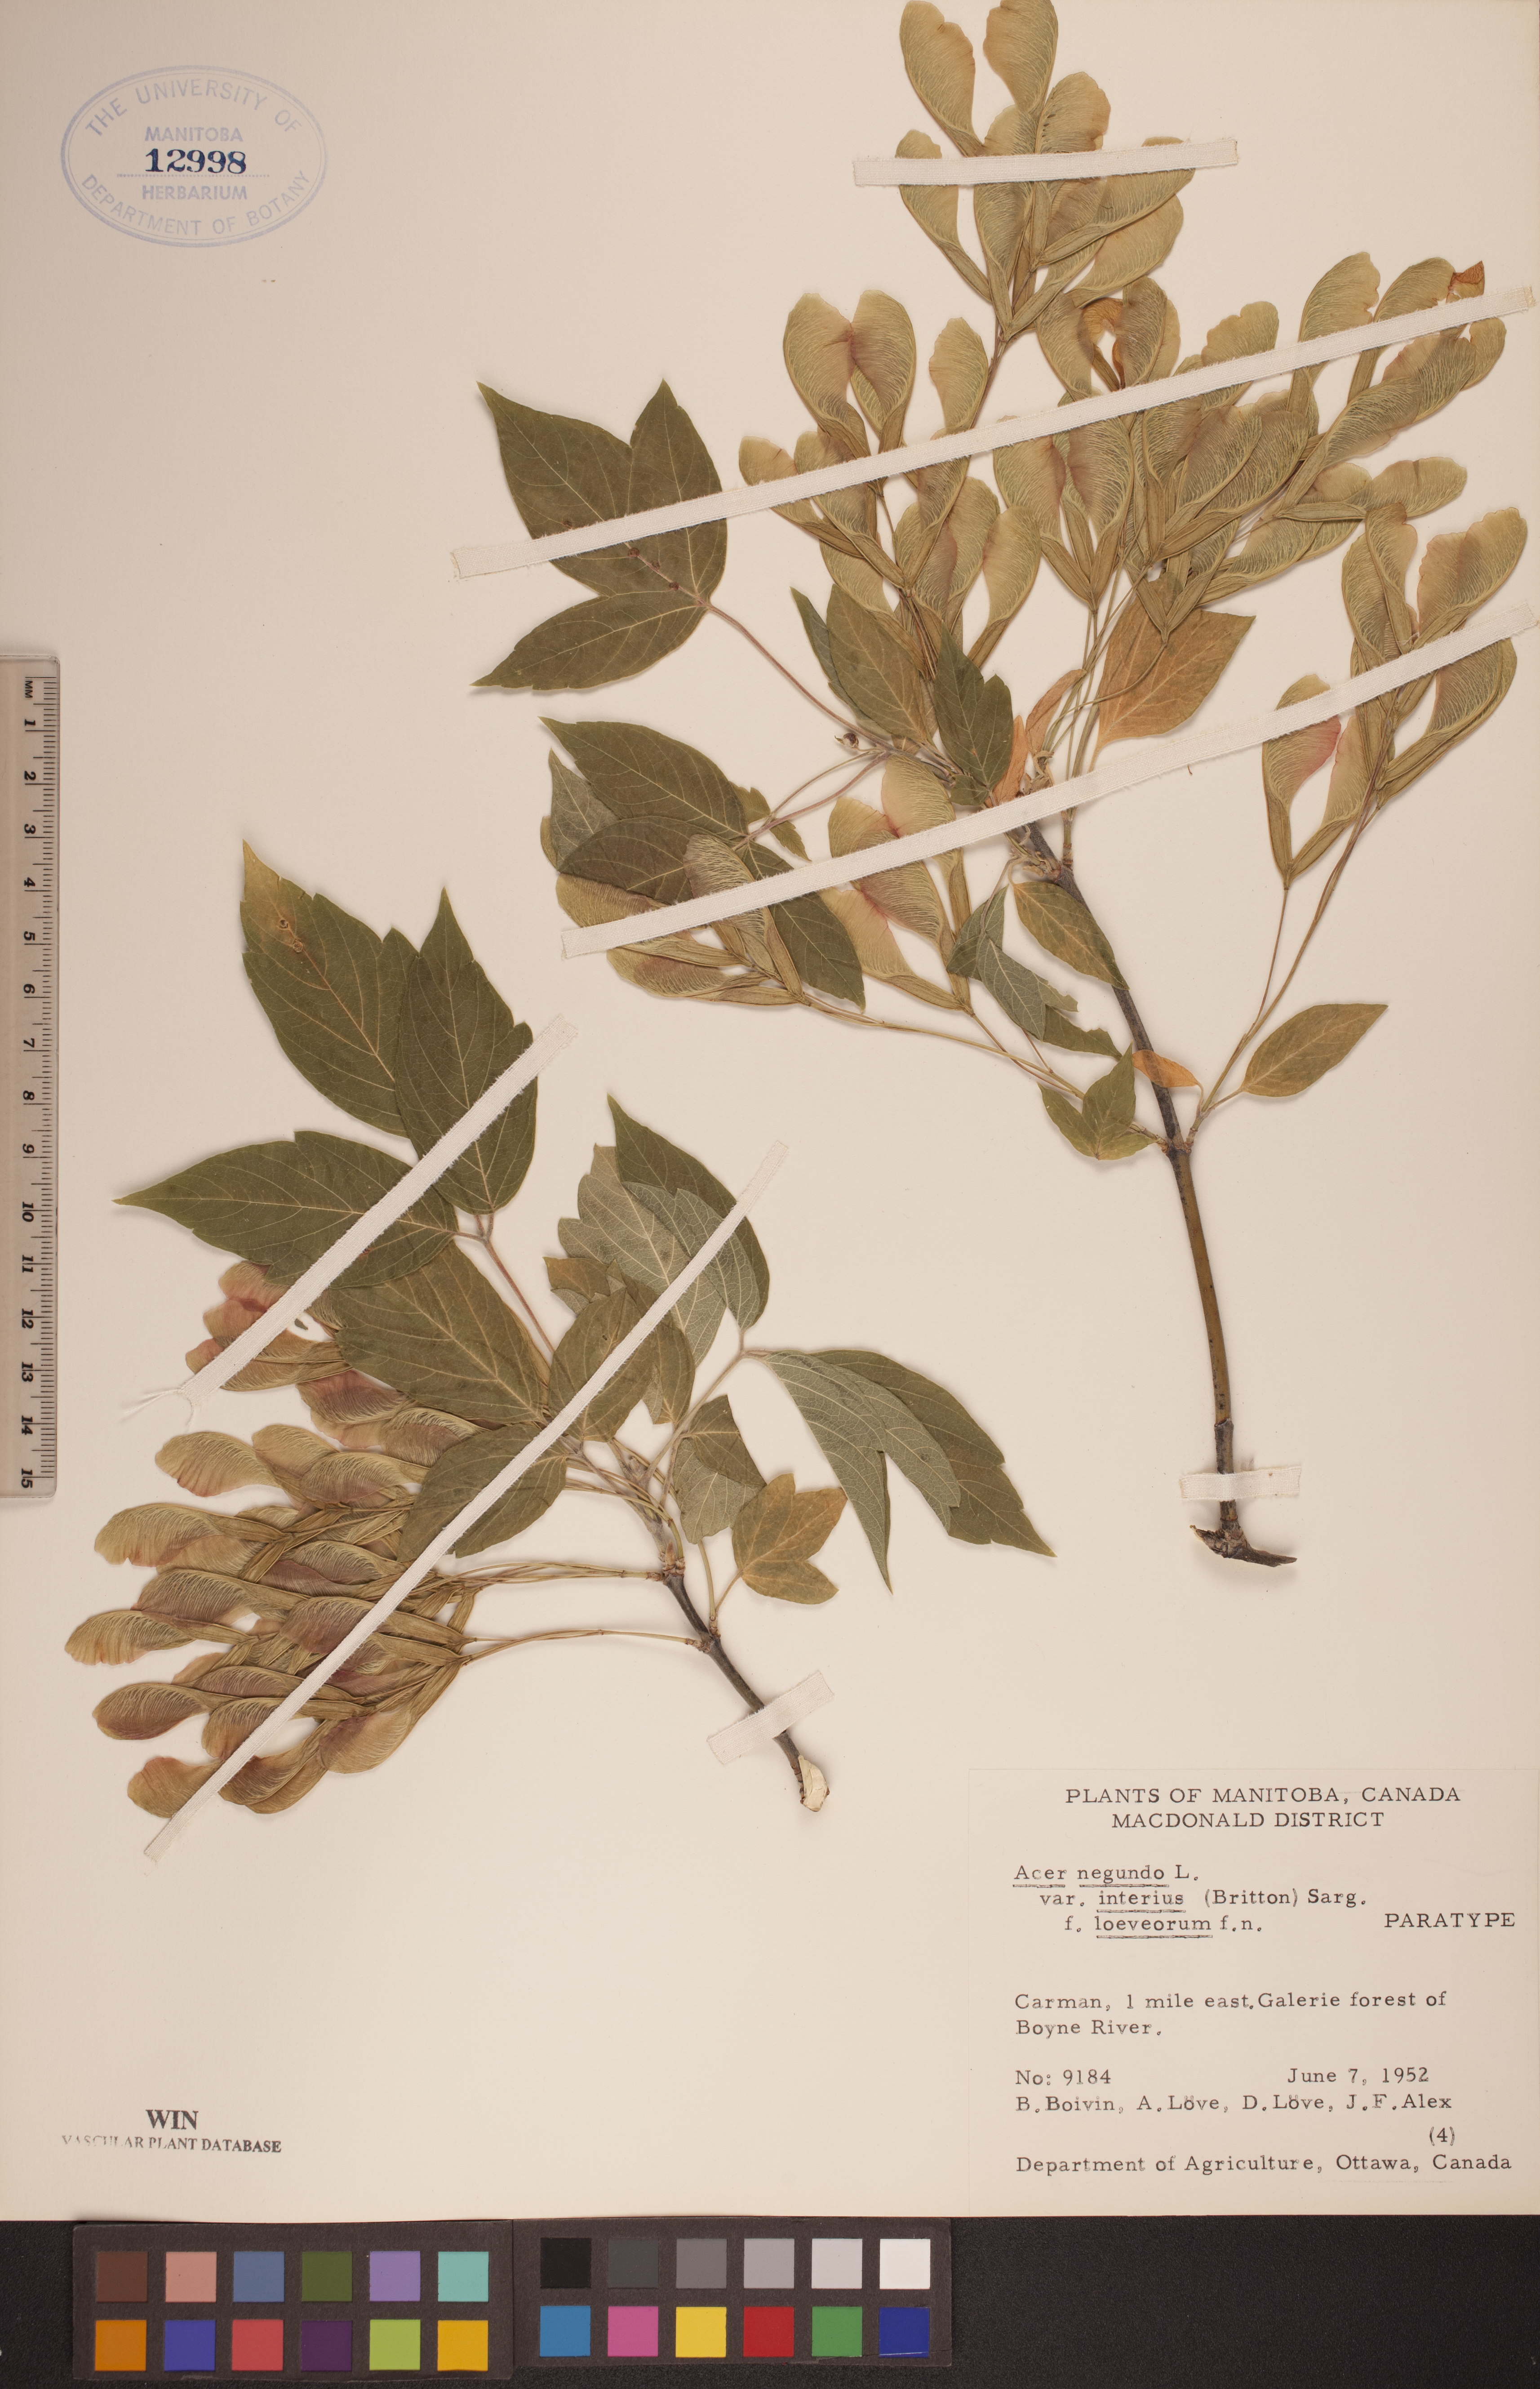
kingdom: Plantae
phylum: Tracheophyta
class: Magnoliopsida
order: Sapindales
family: Sapindaceae
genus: Acer
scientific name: Acer negundo
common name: Ashleaf maple
